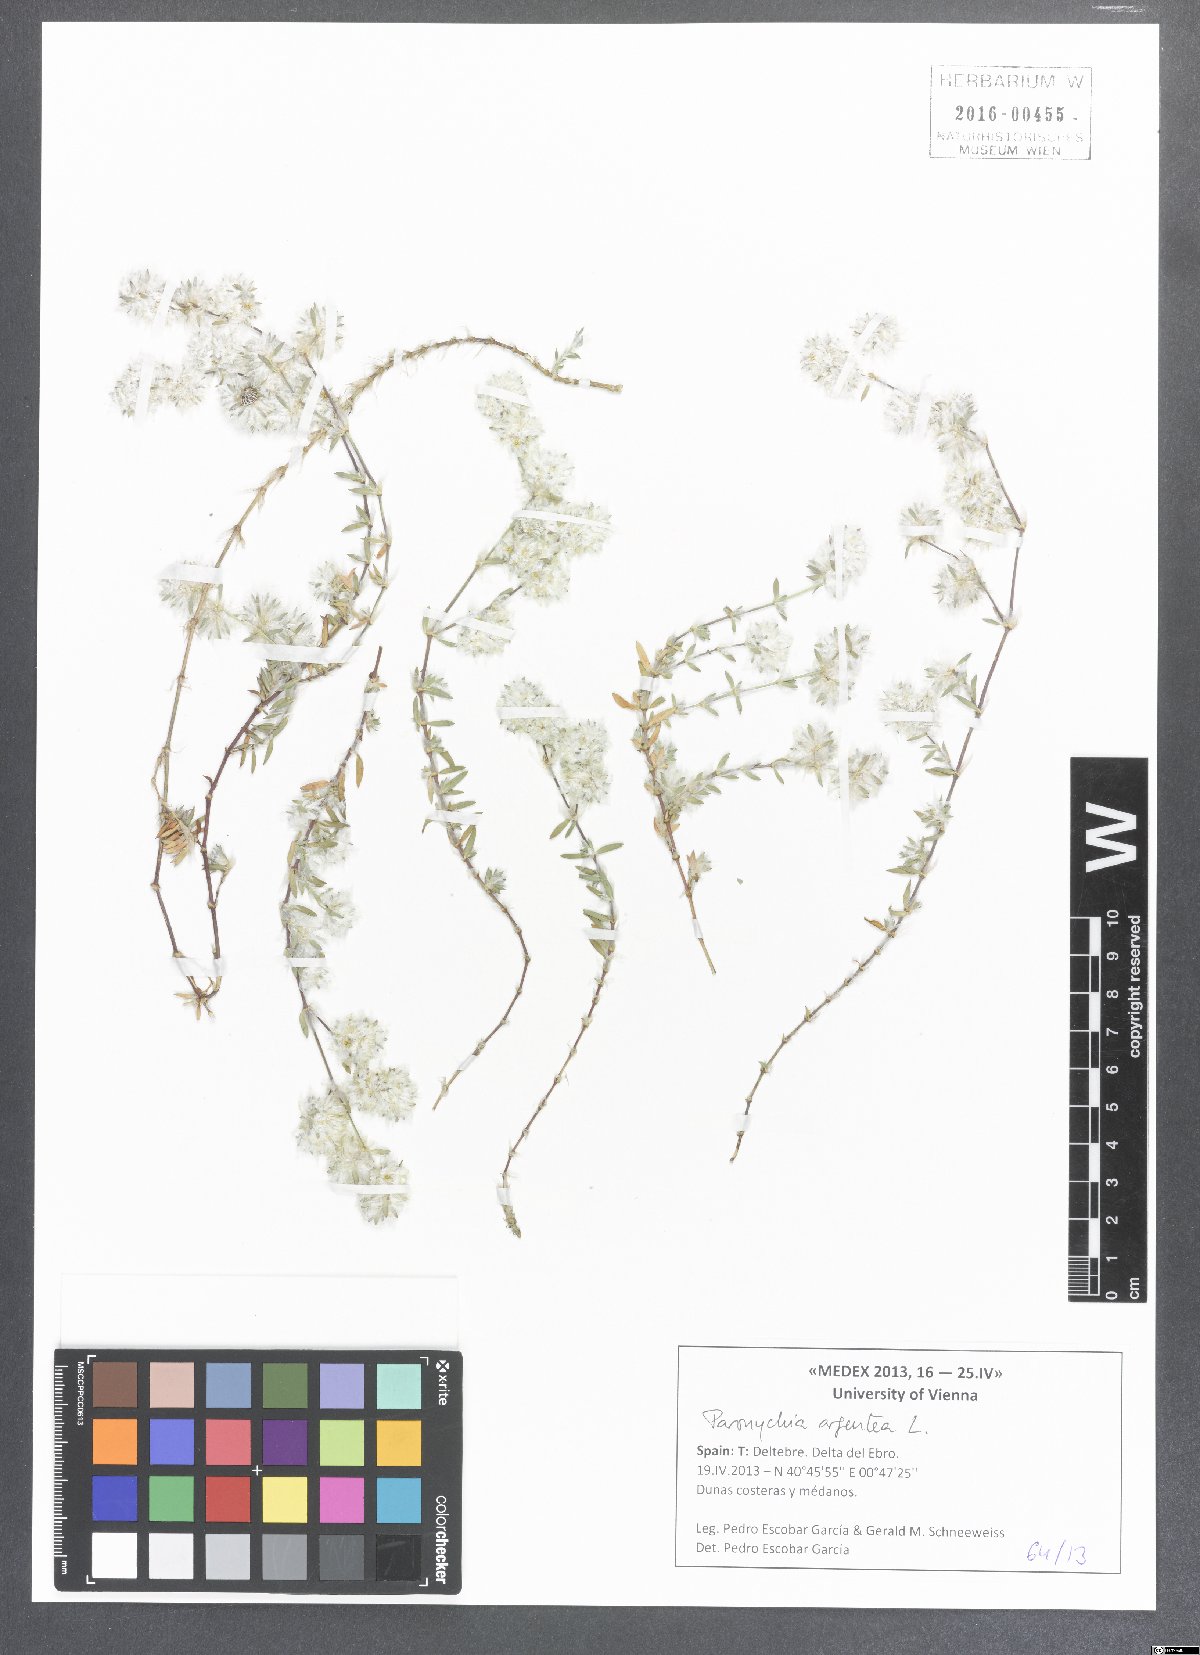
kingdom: Plantae
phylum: Tracheophyta
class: Magnoliopsida
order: Caryophyllales
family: Caryophyllaceae
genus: Paronychia
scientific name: Paronychia argentea
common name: Silver nailroot
